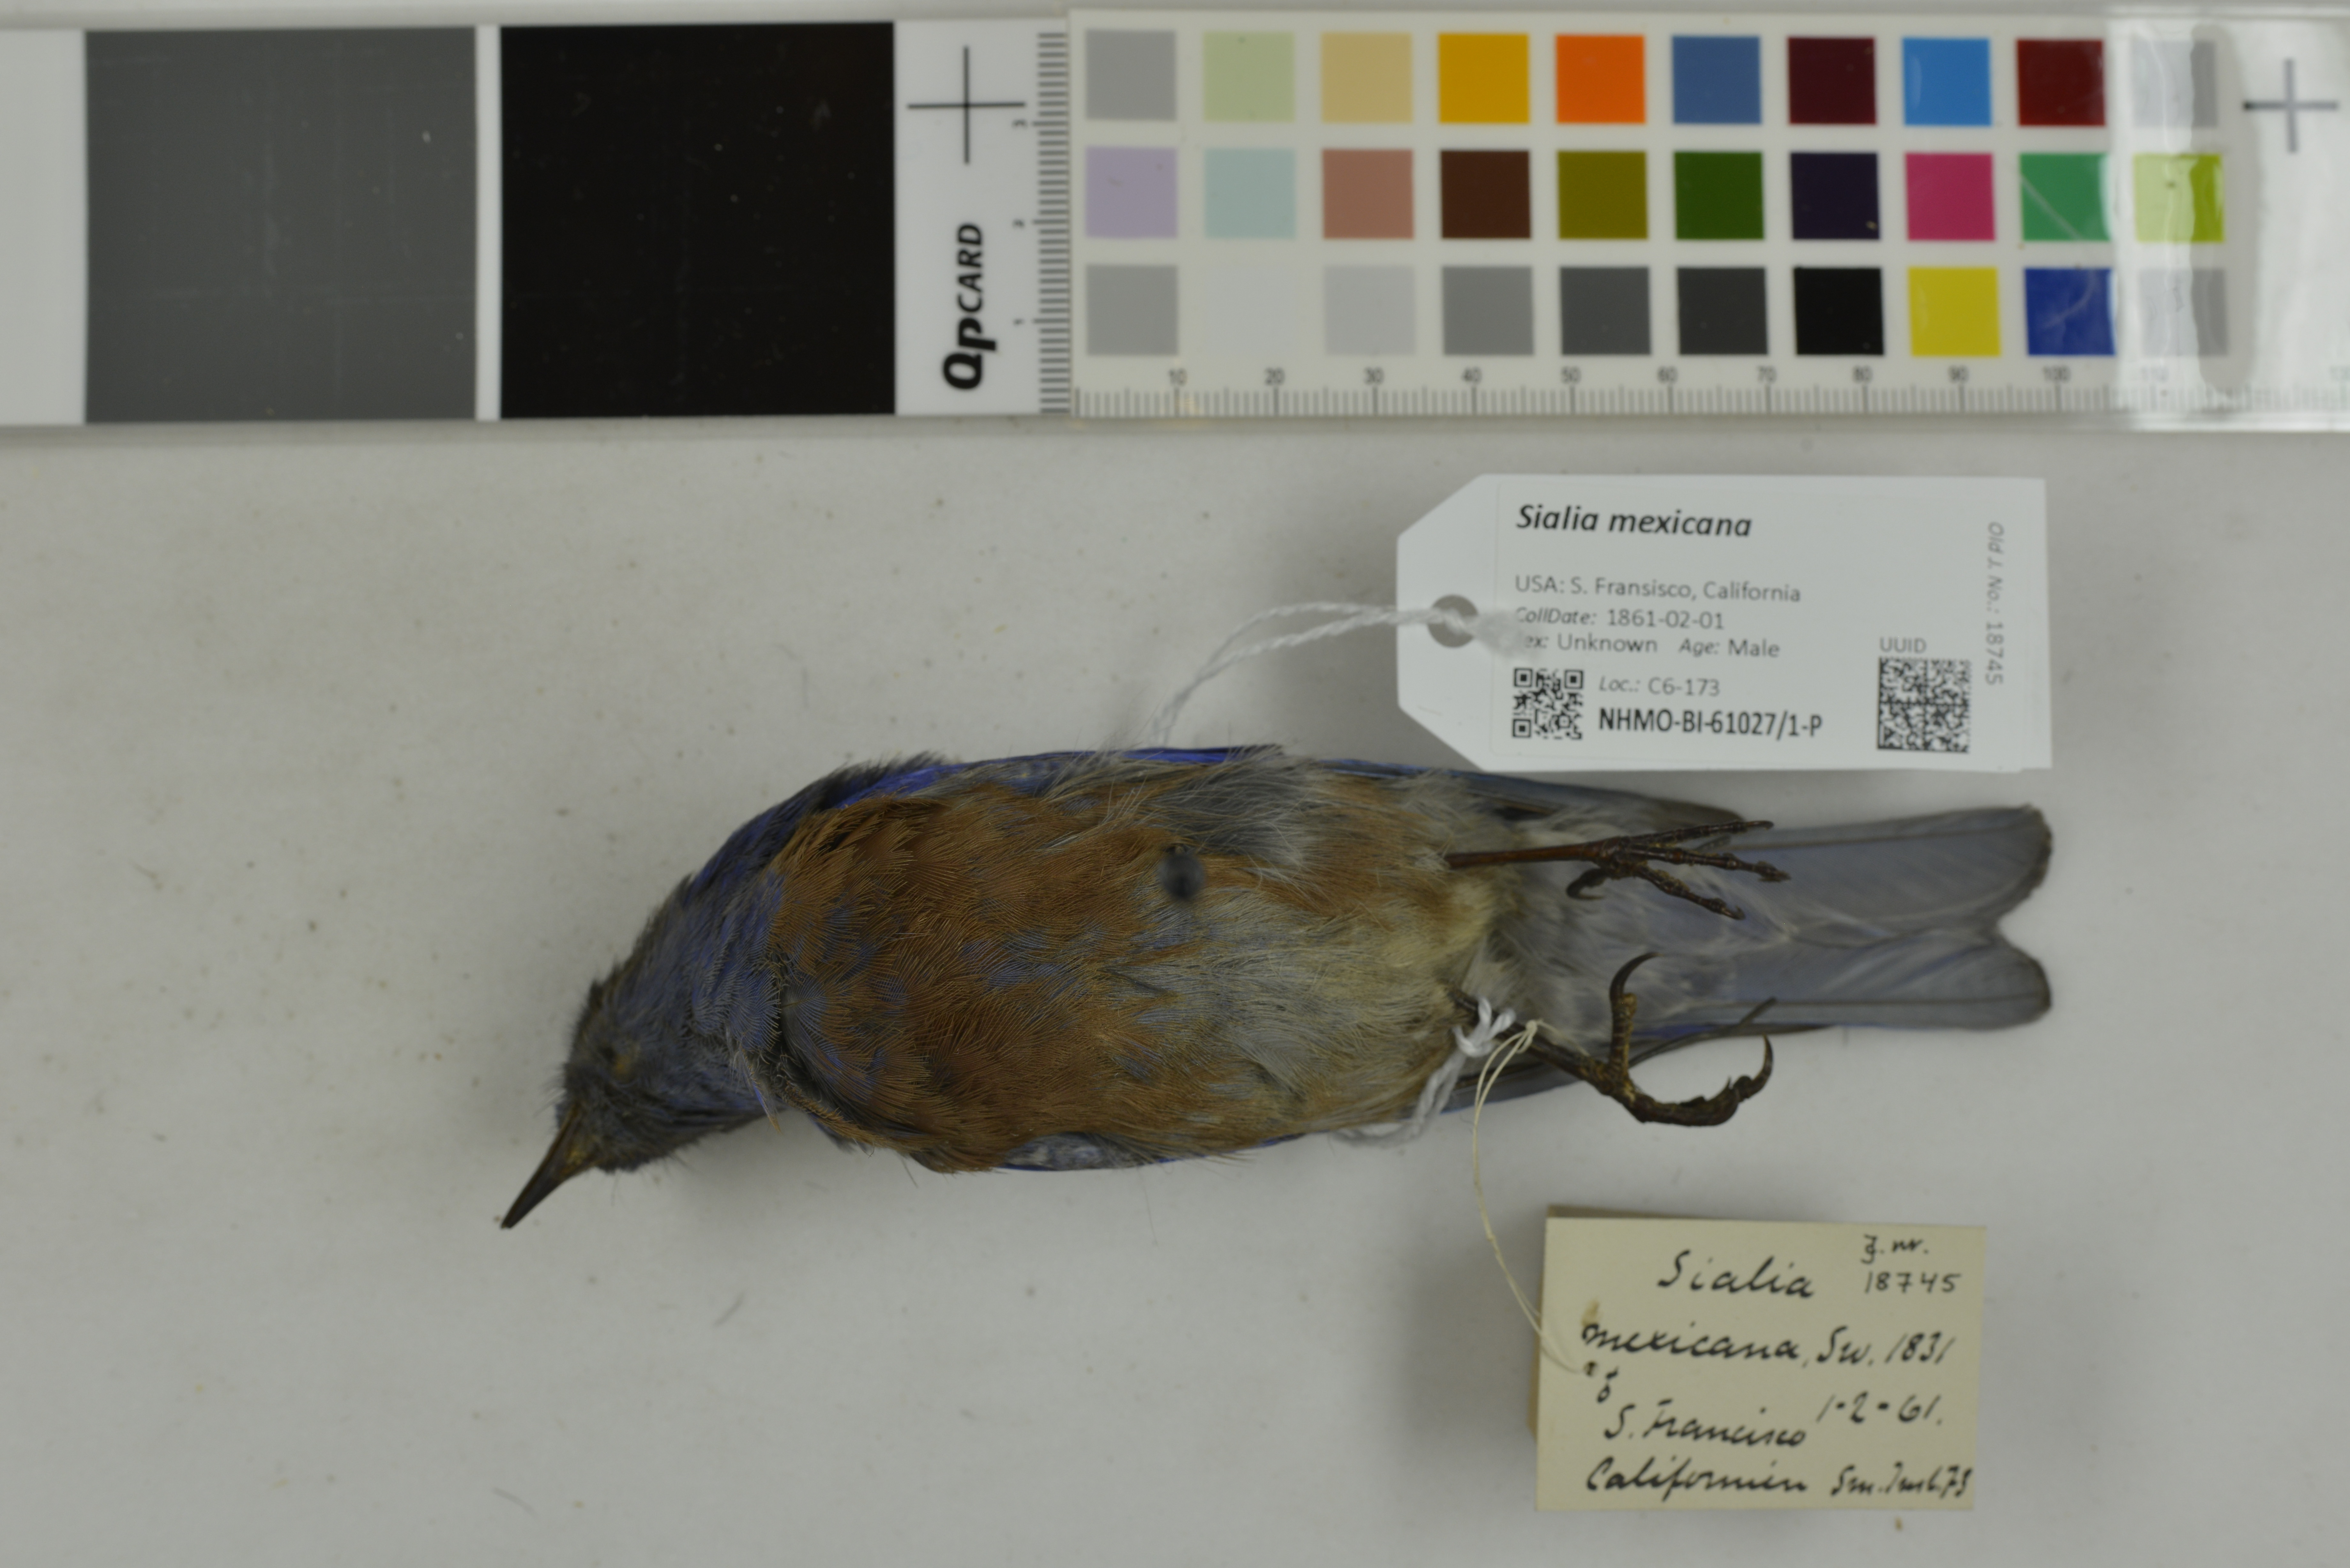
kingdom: Animalia
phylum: Chordata
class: Aves
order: Passeriformes
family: Turdidae
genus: Sialia
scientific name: Sialia mexicana
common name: Western bluebird
